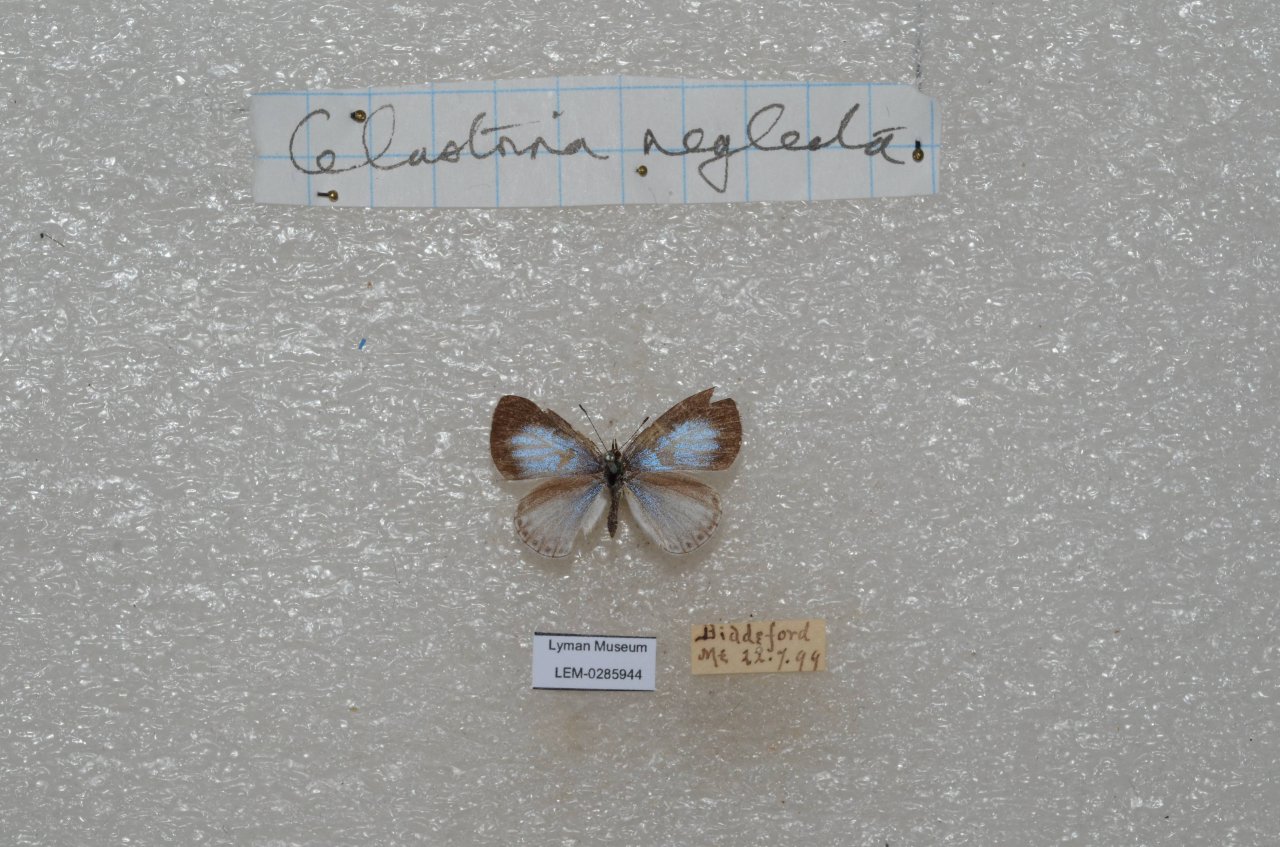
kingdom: Animalia
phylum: Arthropoda
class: Insecta
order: Lepidoptera
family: Lycaenidae
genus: Cyaniris
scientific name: Cyaniris neglecta
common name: Summer Azure
